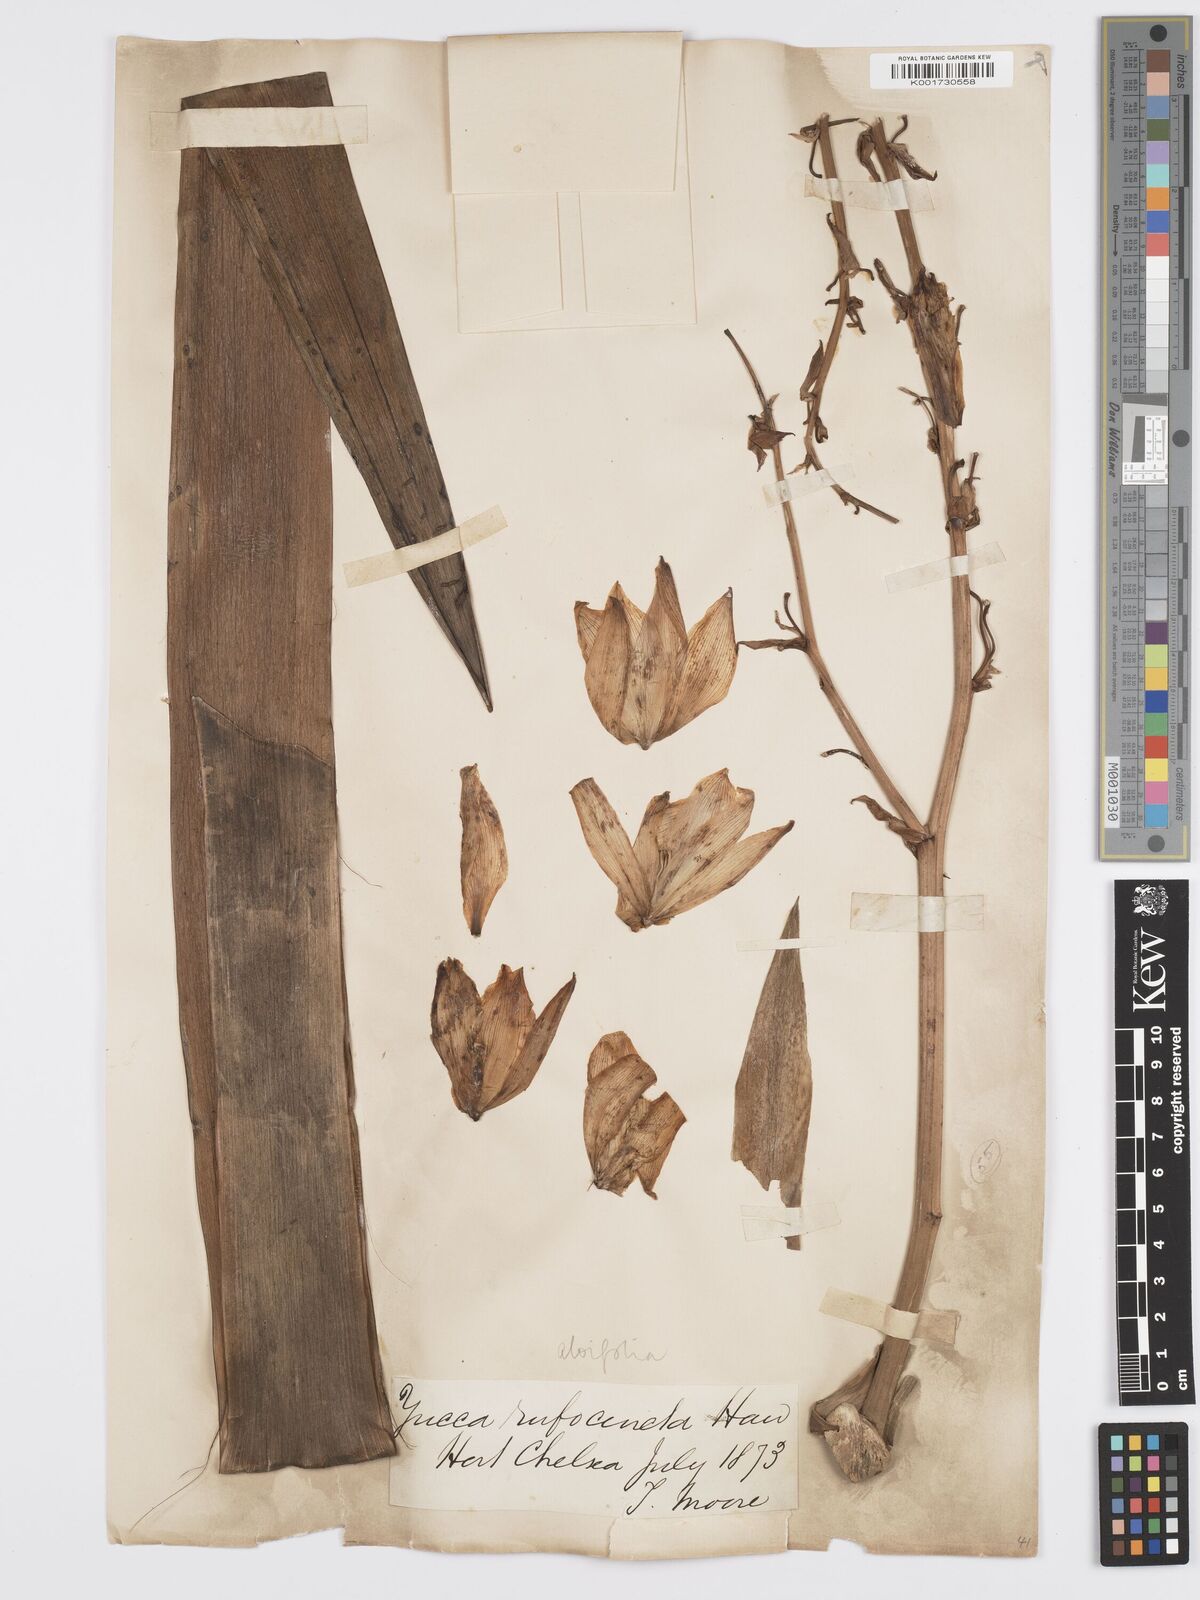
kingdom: Plantae
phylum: Tracheophyta
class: Liliopsida
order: Asparagales
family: Asparagaceae
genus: Yucca
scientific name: Yucca aloifolia
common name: Aloe yucca
